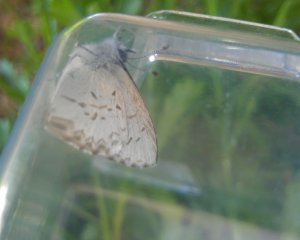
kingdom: Animalia
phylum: Arthropoda
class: Insecta
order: Lepidoptera
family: Lycaenidae
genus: Celastrina
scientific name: Celastrina lucia
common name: Northern Spring Azure
